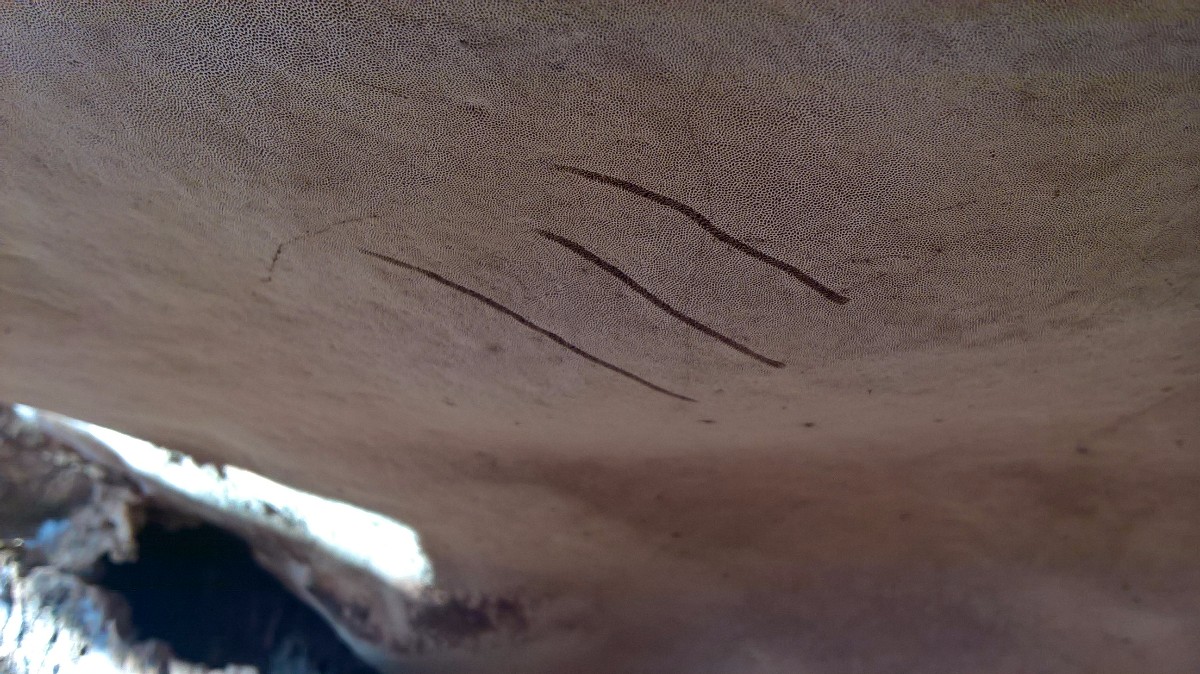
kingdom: Fungi
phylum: Basidiomycota
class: Agaricomycetes
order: Polyporales
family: Polyporaceae
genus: Ganoderma
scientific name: Ganoderma applanatum
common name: flad lakporesvamp
